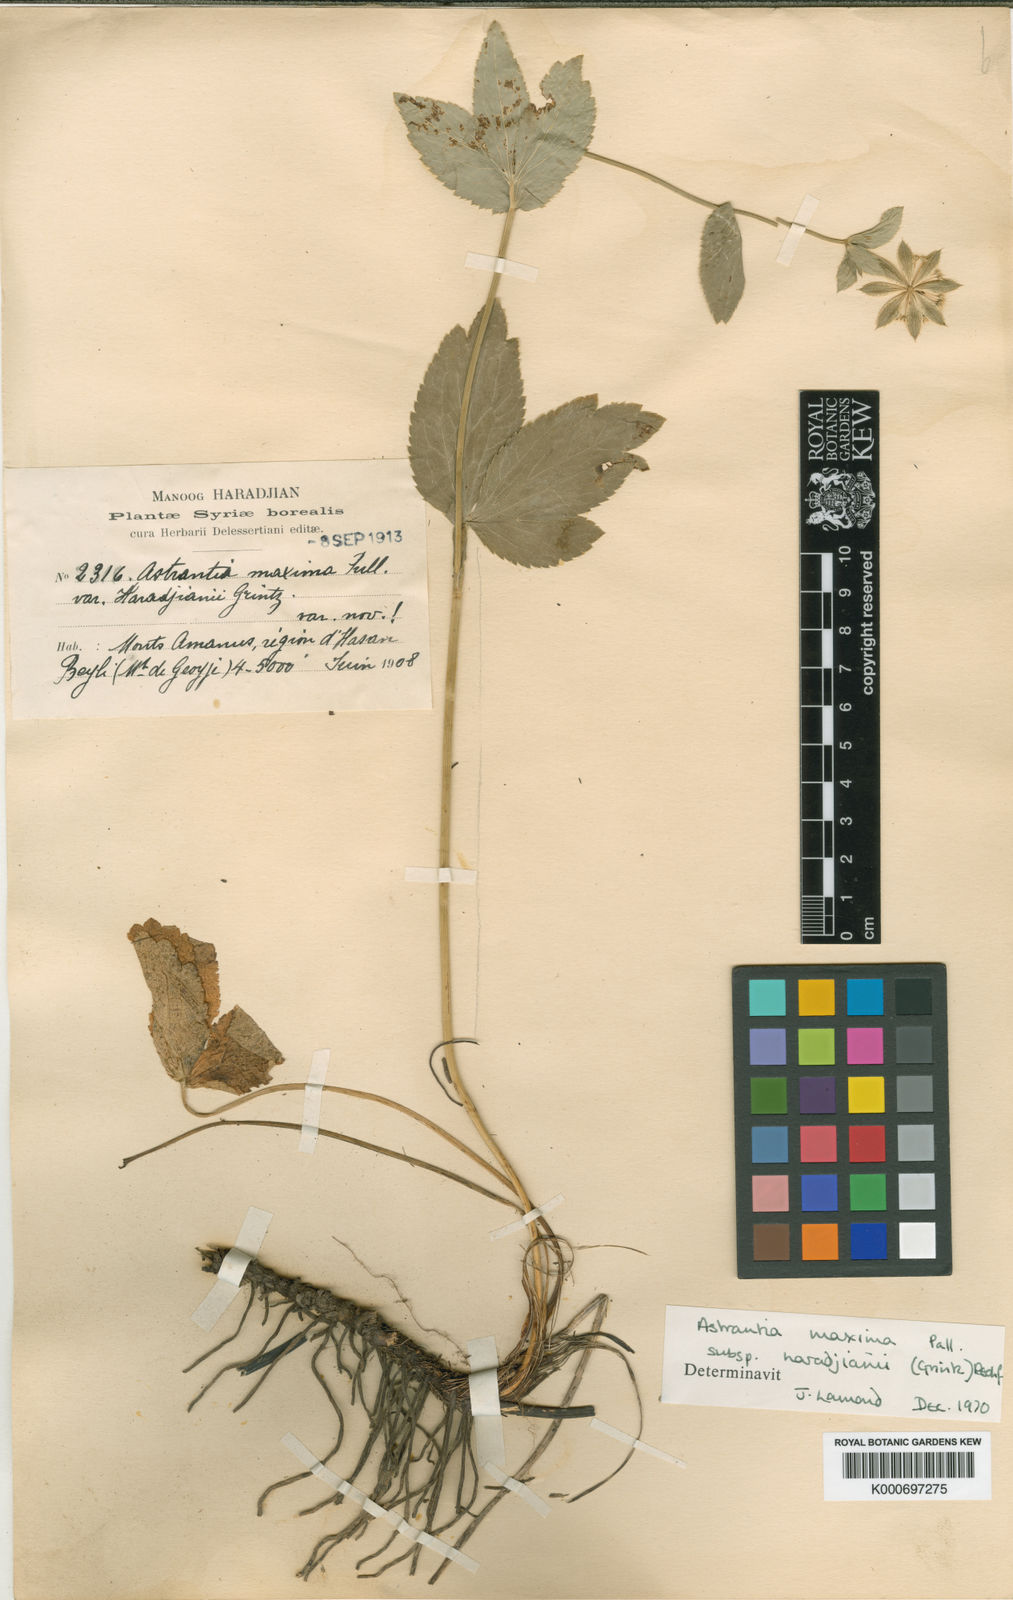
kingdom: Plantae
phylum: Tracheophyta
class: Magnoliopsida
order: Apiales
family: Apiaceae
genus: Astrantia
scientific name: Astrantia maxima
